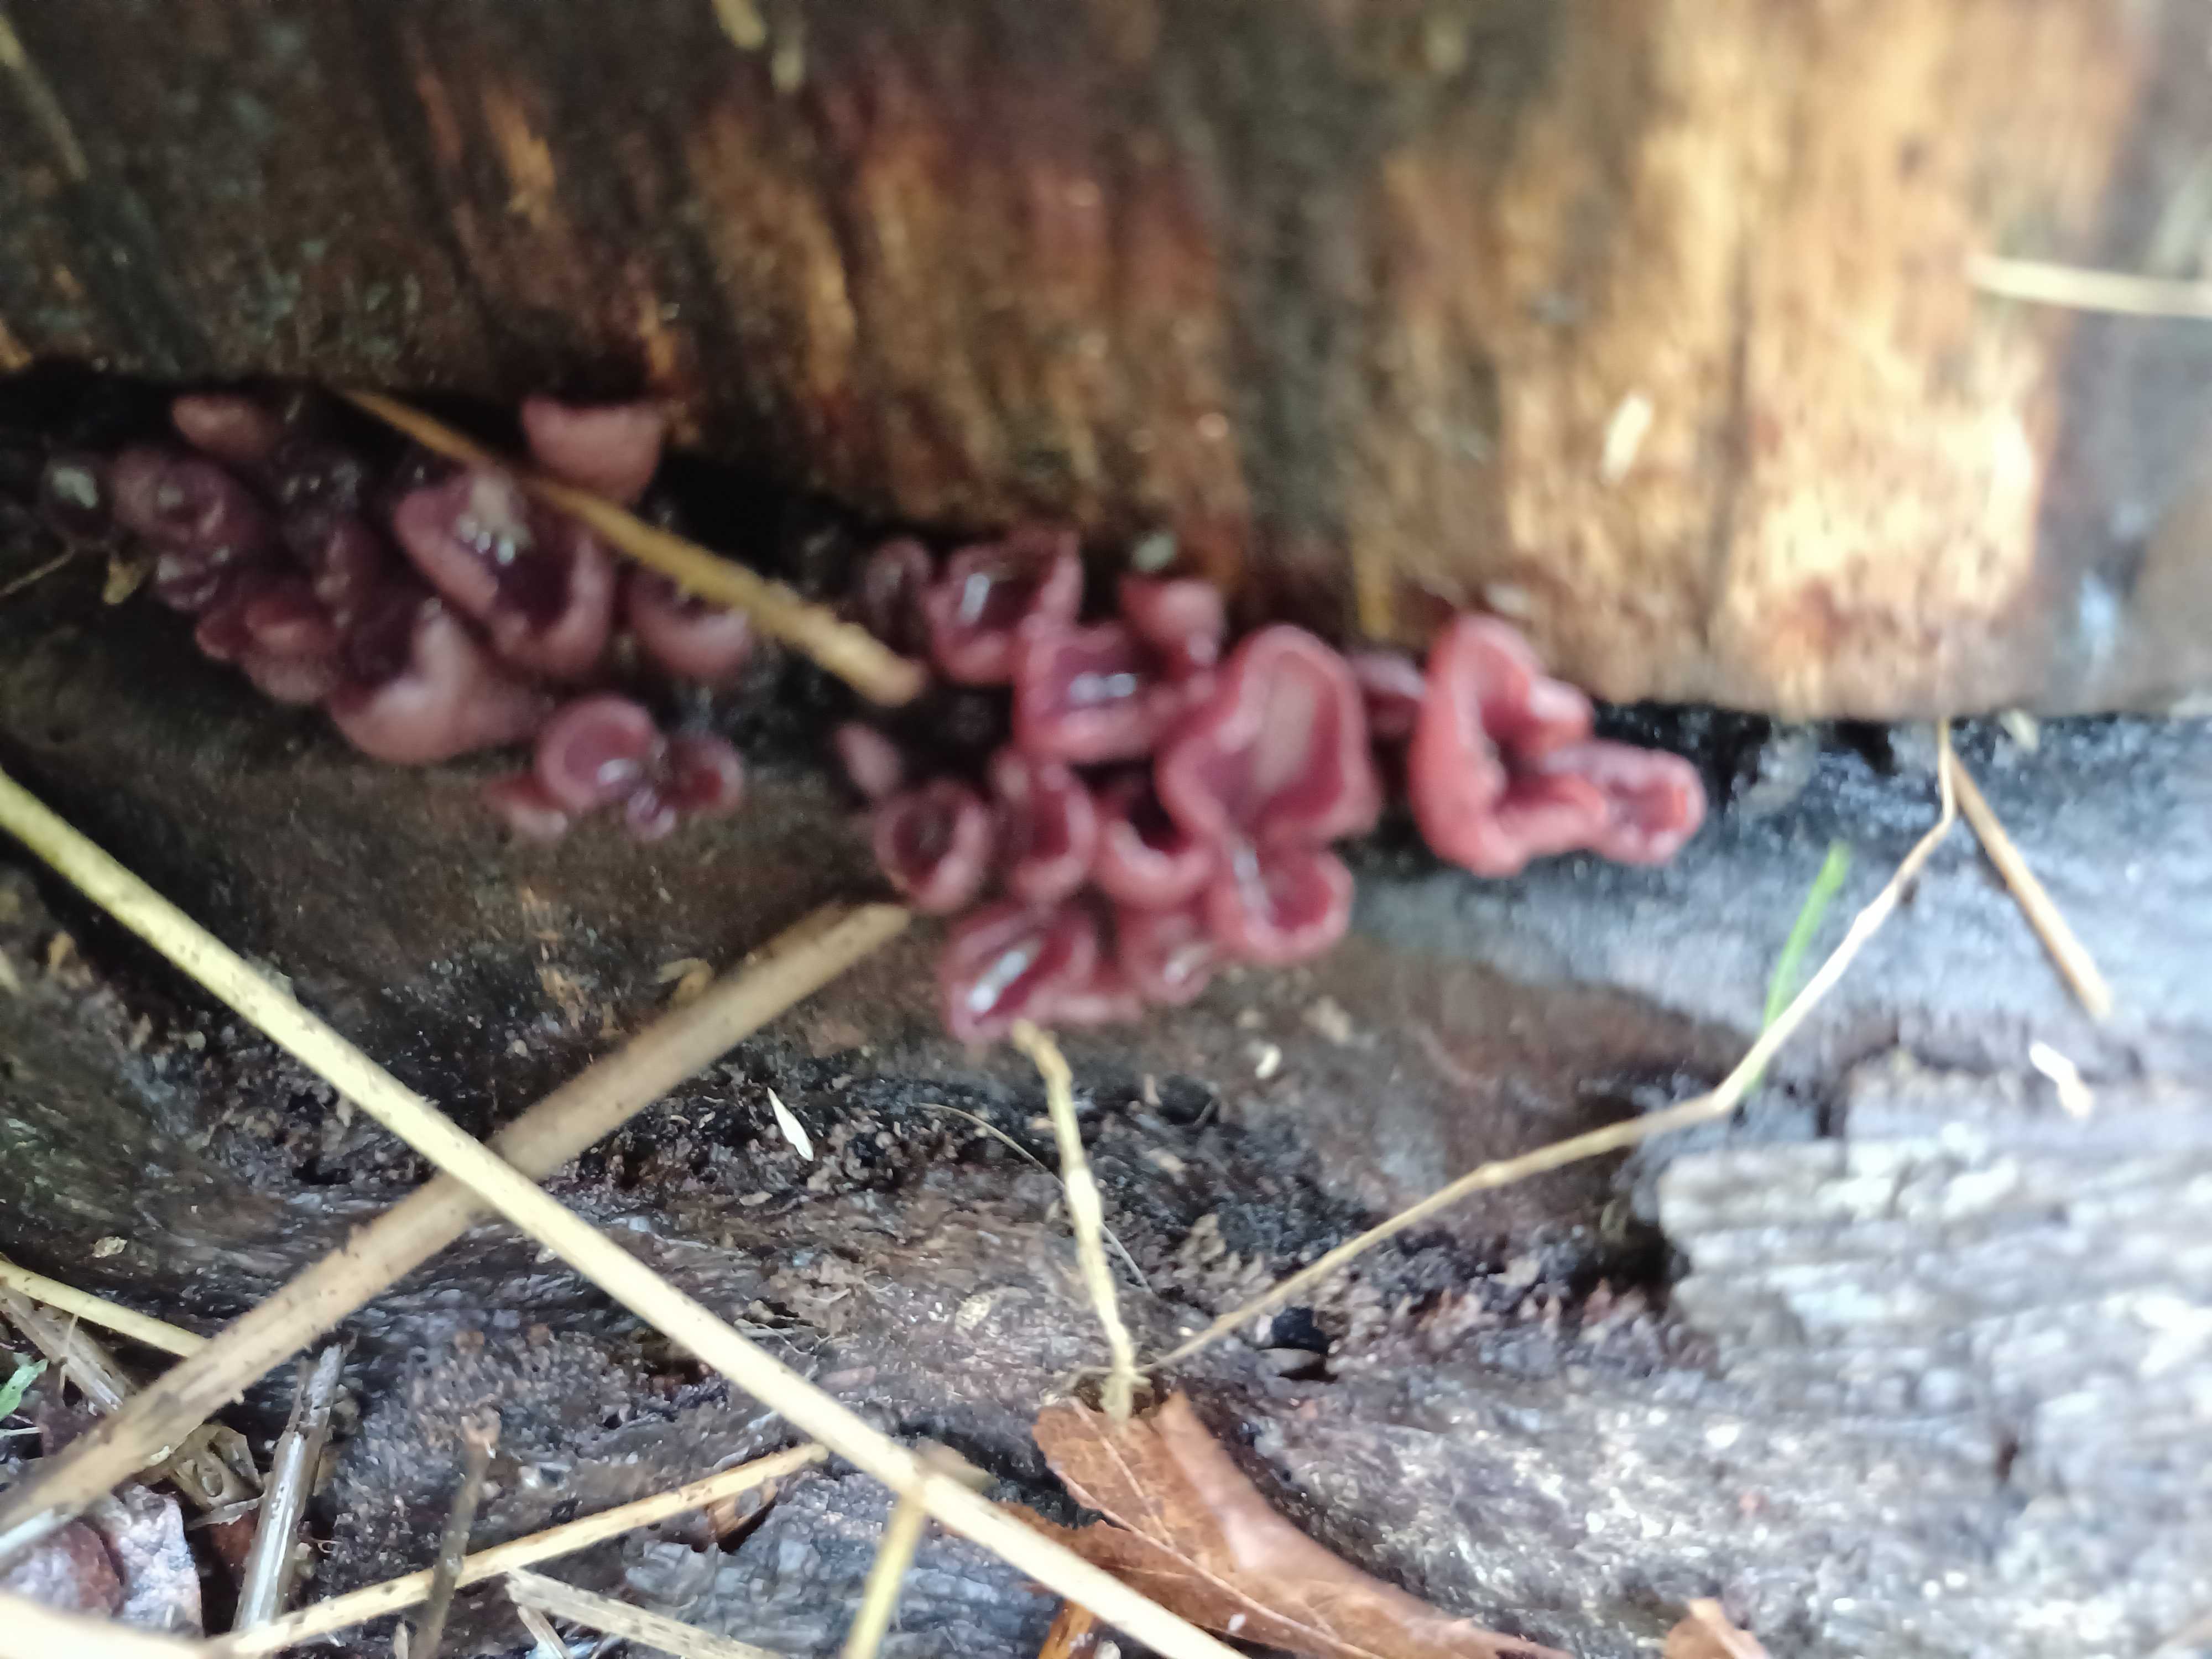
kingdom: Fungi
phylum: Ascomycota
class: Leotiomycetes
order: Helotiales
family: Gelatinodiscaceae
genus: Ascocoryne
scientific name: Ascocoryne sarcoides
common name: rødlilla sejskive
